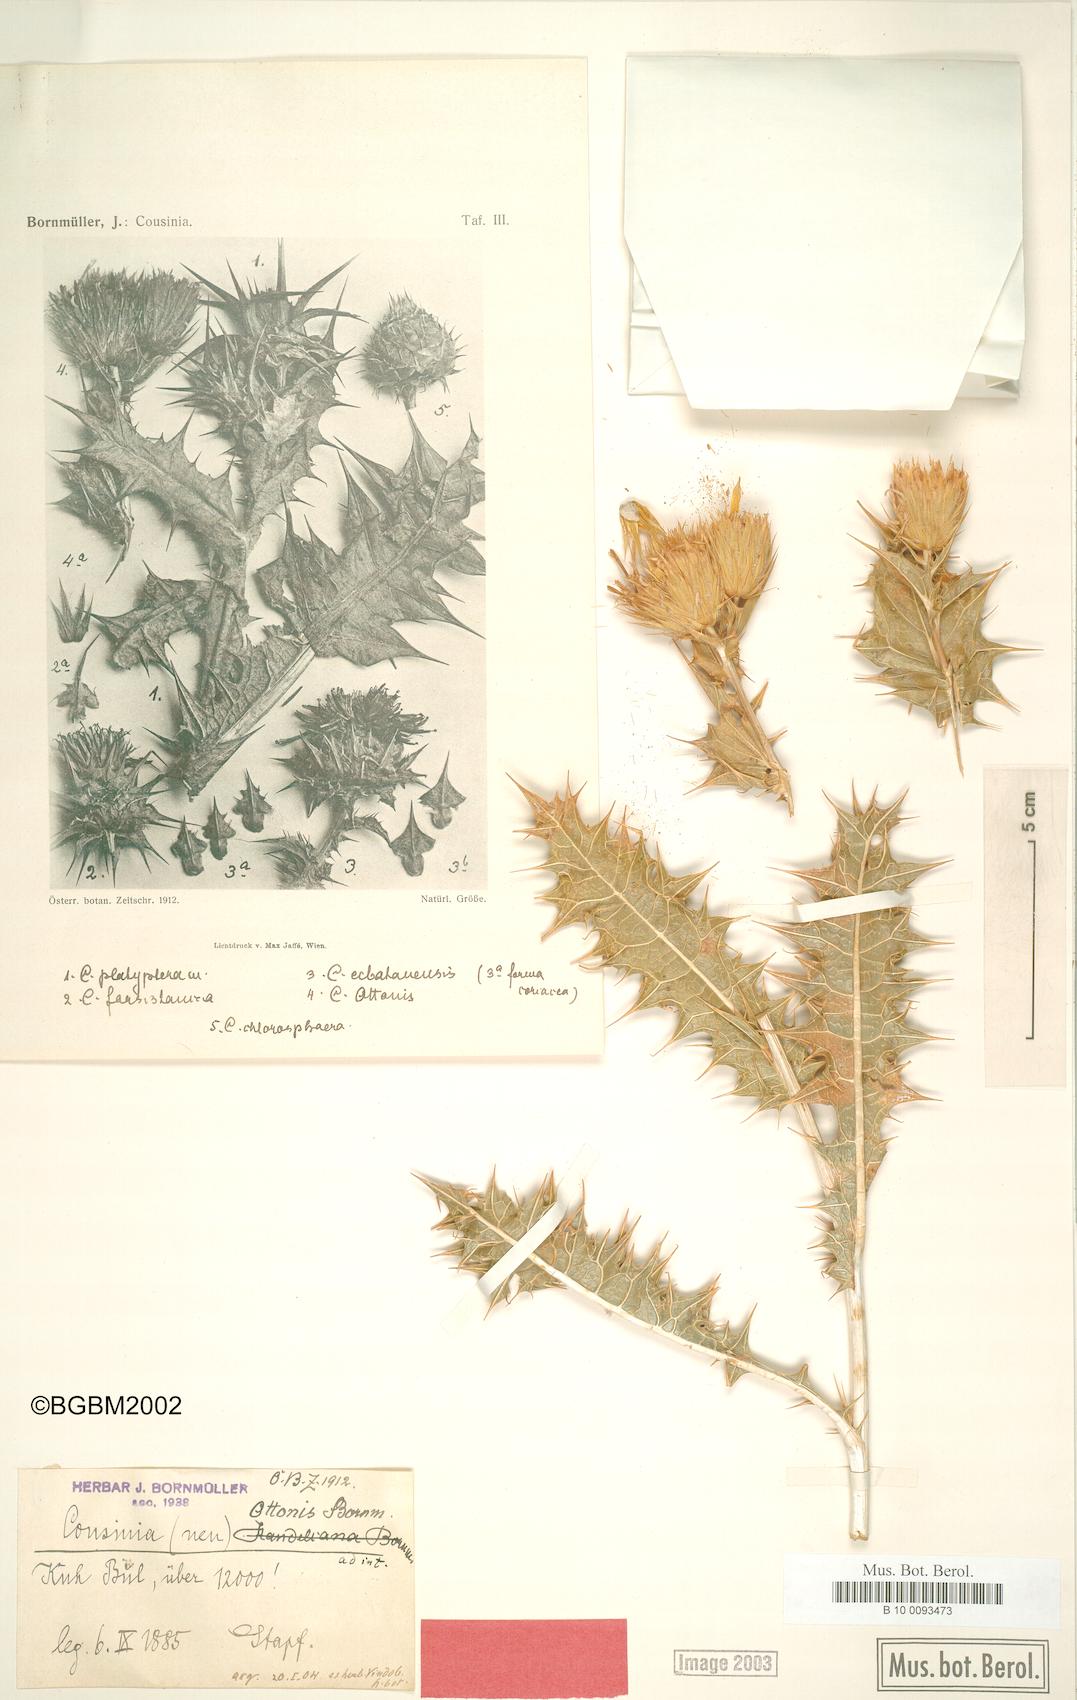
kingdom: Plantae
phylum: Tracheophyta
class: Magnoliopsida
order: Asterales
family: Asteraceae
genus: Cousinia
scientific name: Cousinia ottonis
